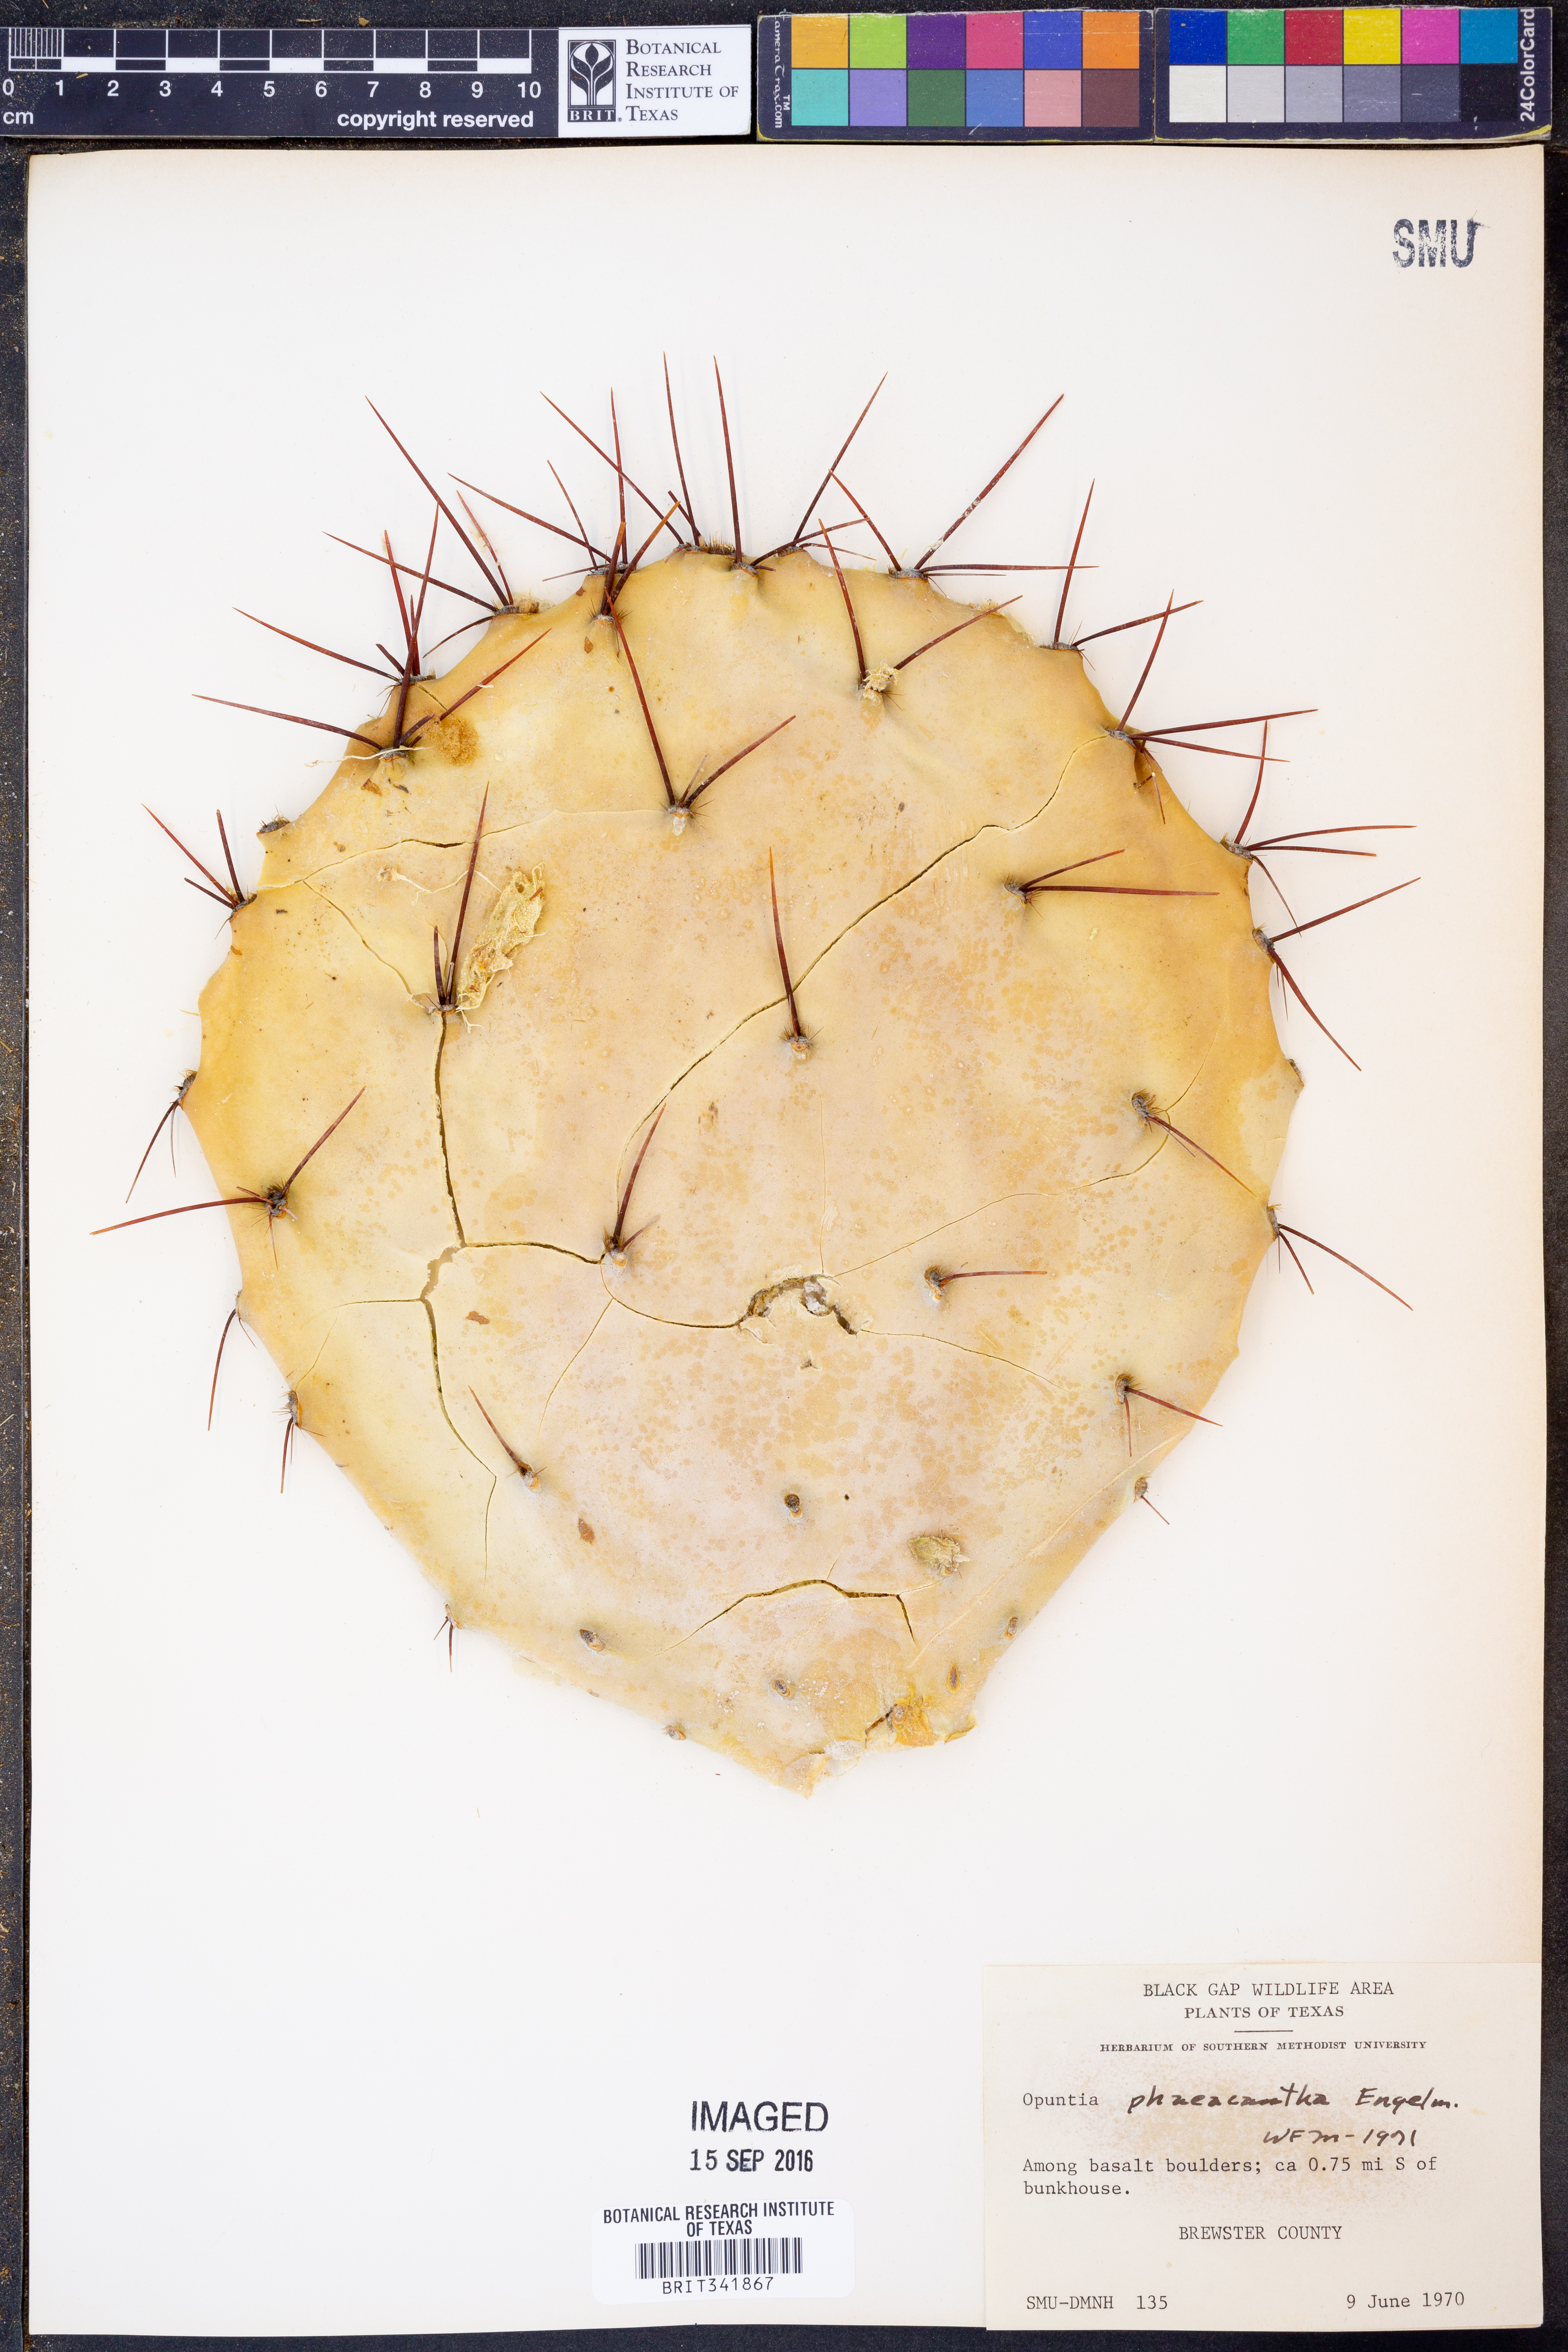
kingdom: Plantae
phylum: Tracheophyta
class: Magnoliopsida
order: Caryophyllales
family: Cactaceae
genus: Opuntia
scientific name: Opuntia phaeacantha
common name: New mexico prickly-pear
